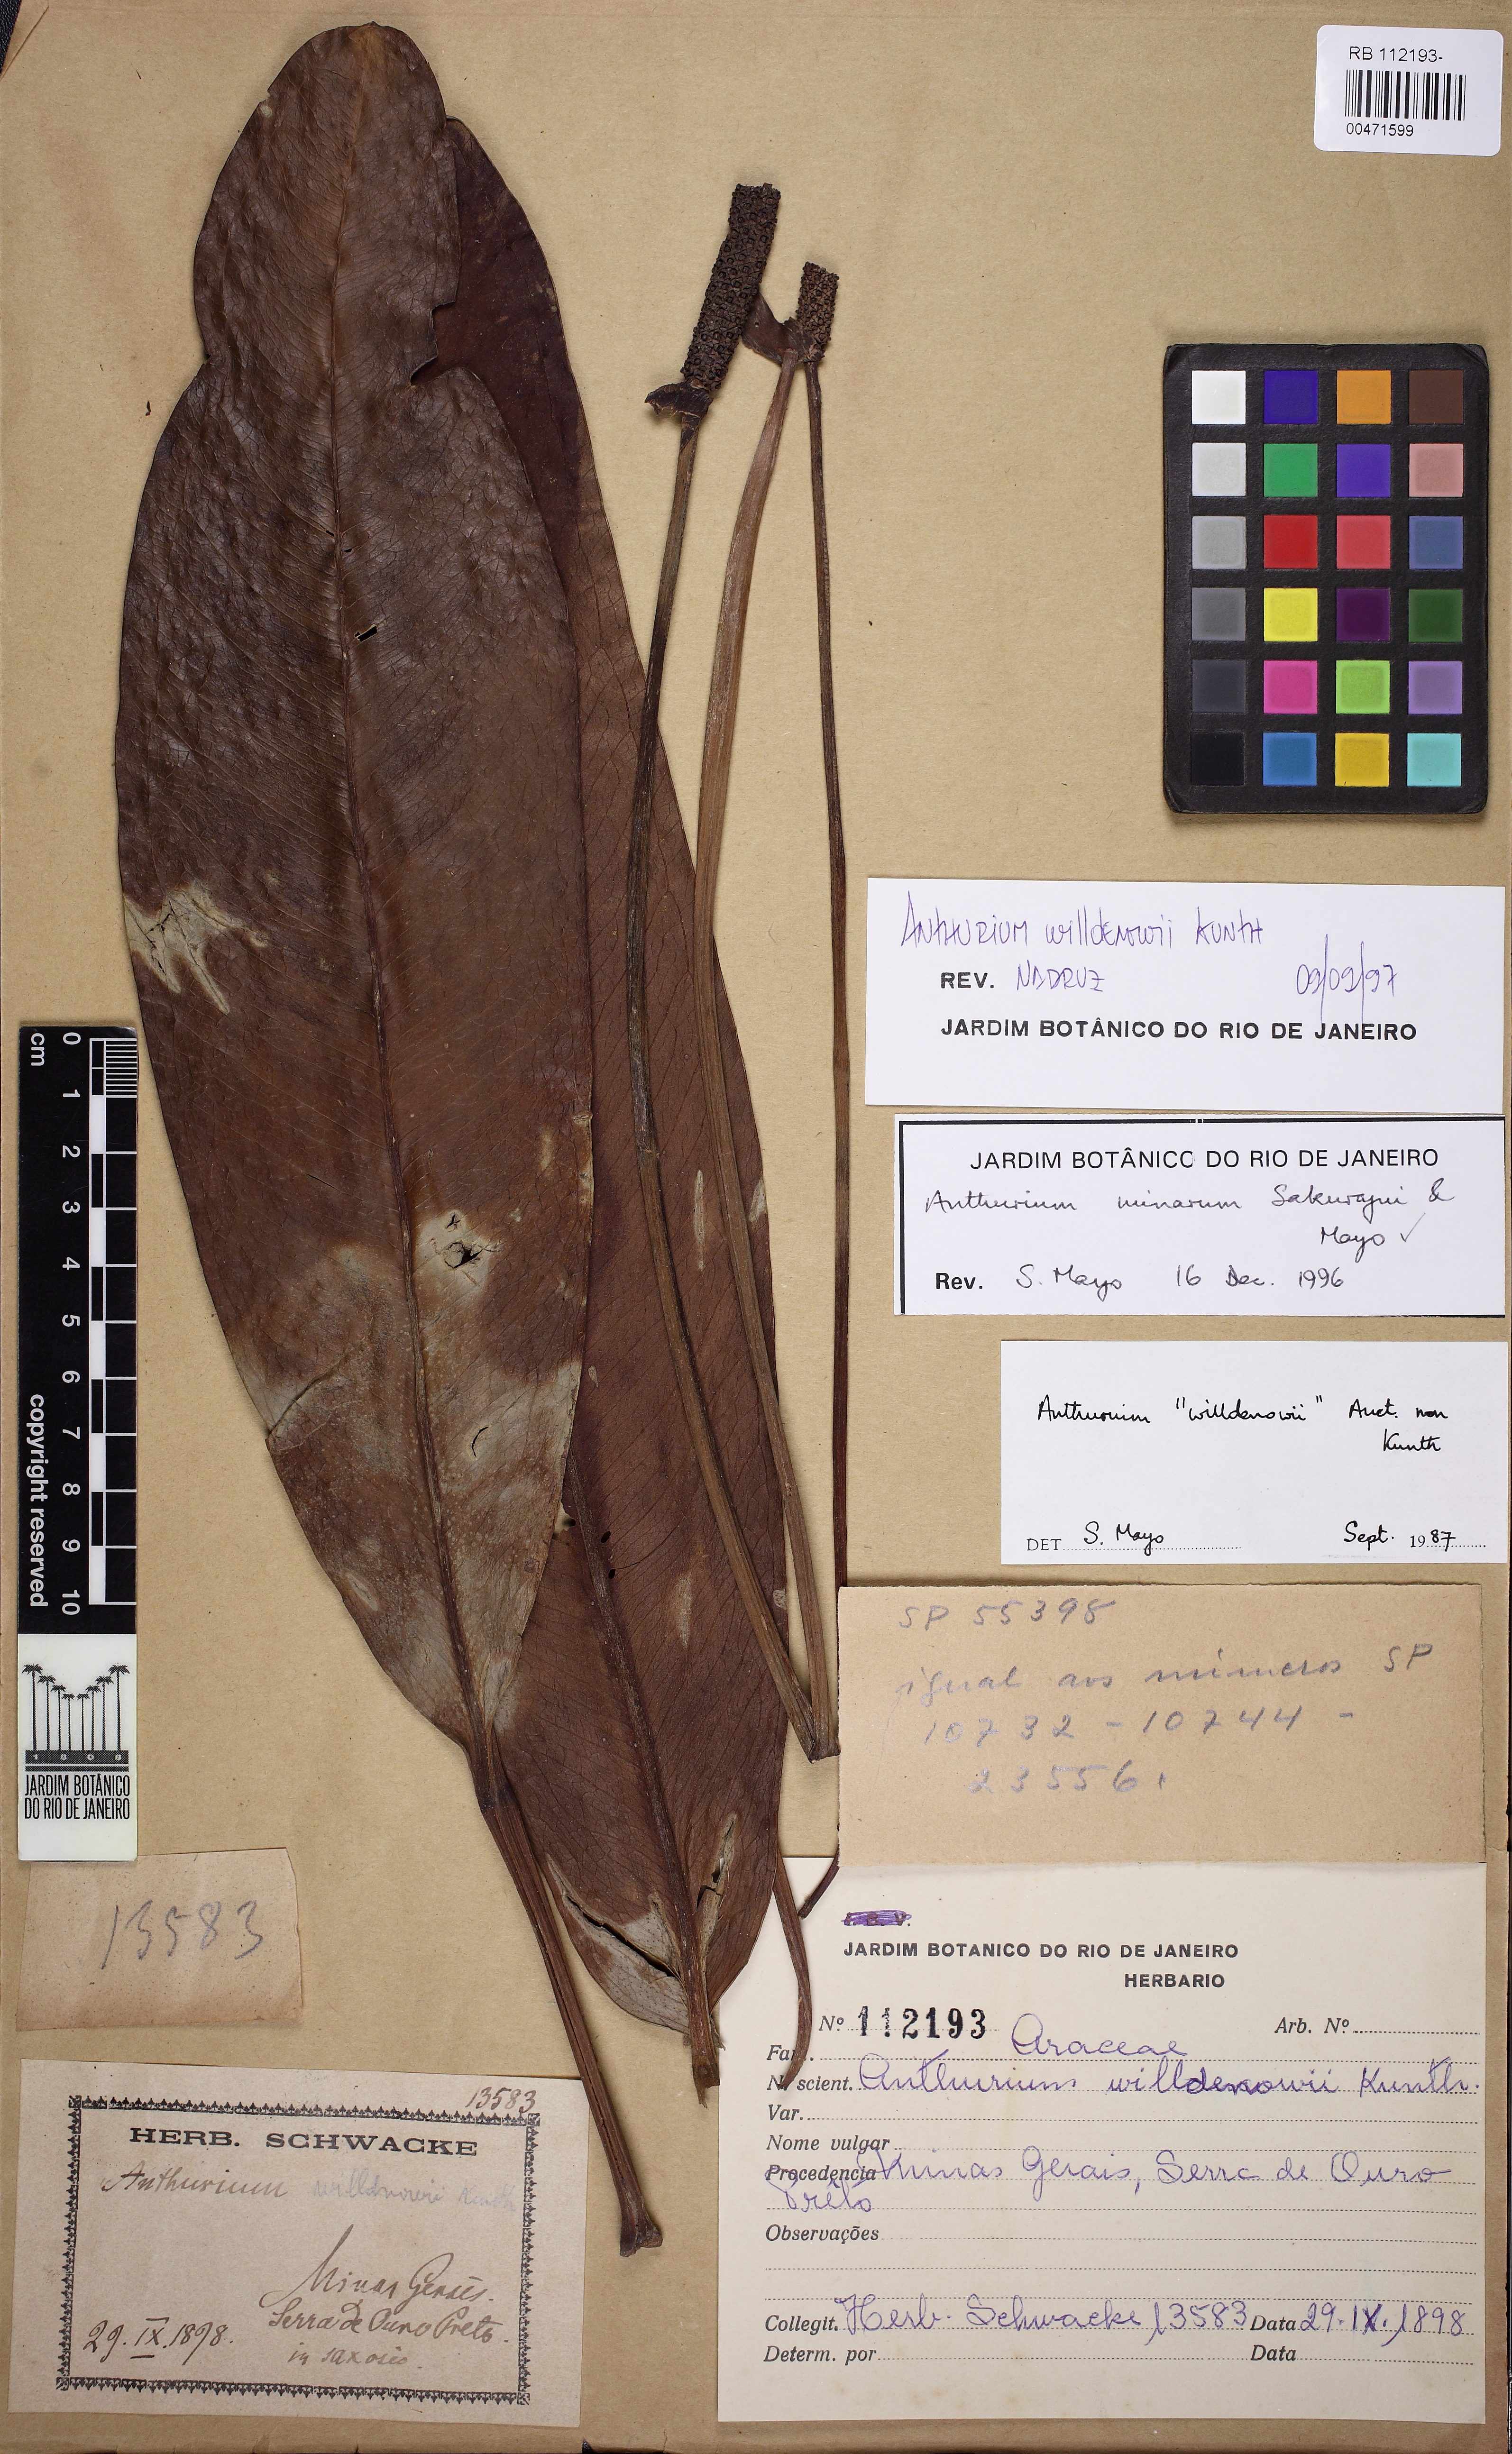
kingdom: Plantae
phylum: Tracheophyta
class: Liliopsida
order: Alismatales
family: Araceae
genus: Anthurium
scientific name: Anthurium willdenowii
